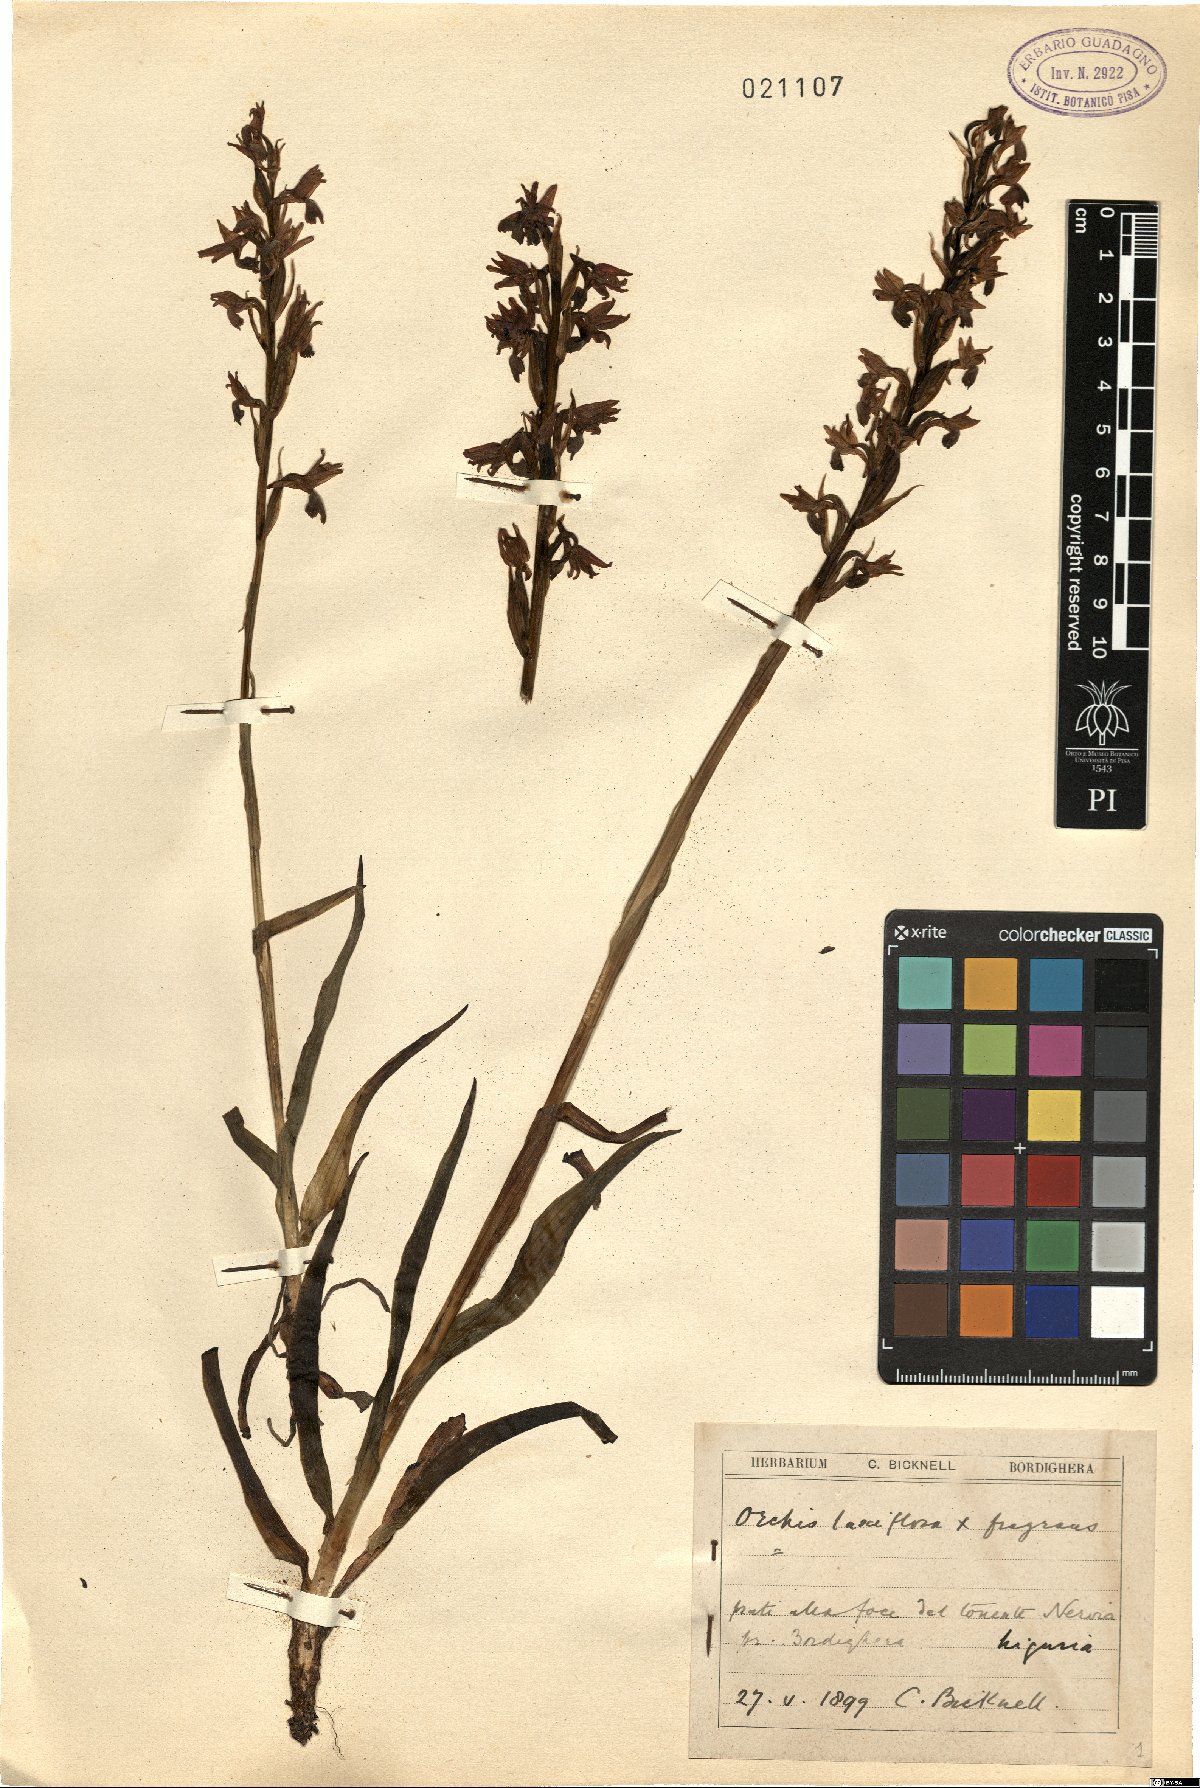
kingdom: Plantae
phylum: Tracheophyta
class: Liliopsida
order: Asparagales
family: Orchidaceae
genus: Anacamptis
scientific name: Anacamptis laxiflora
